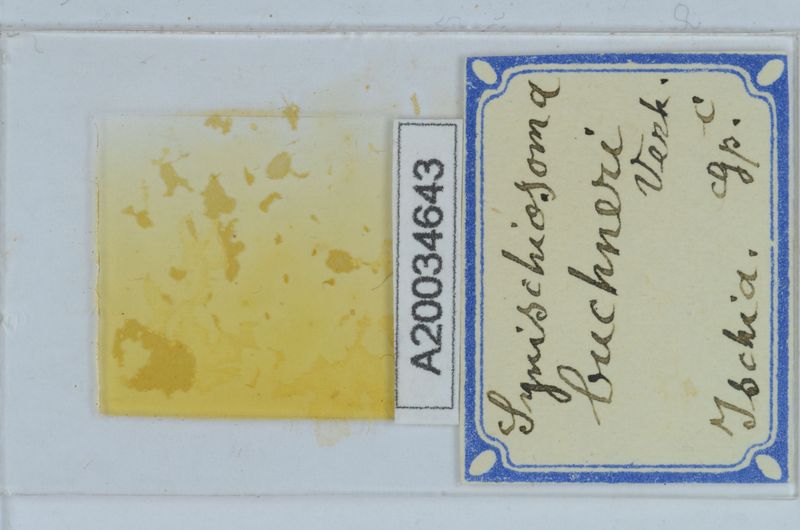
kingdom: Animalia
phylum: Arthropoda
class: Diplopoda
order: Chordeumatida
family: Craspedosomatidae
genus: Synischiosoma
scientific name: Synischiosoma buchneri
